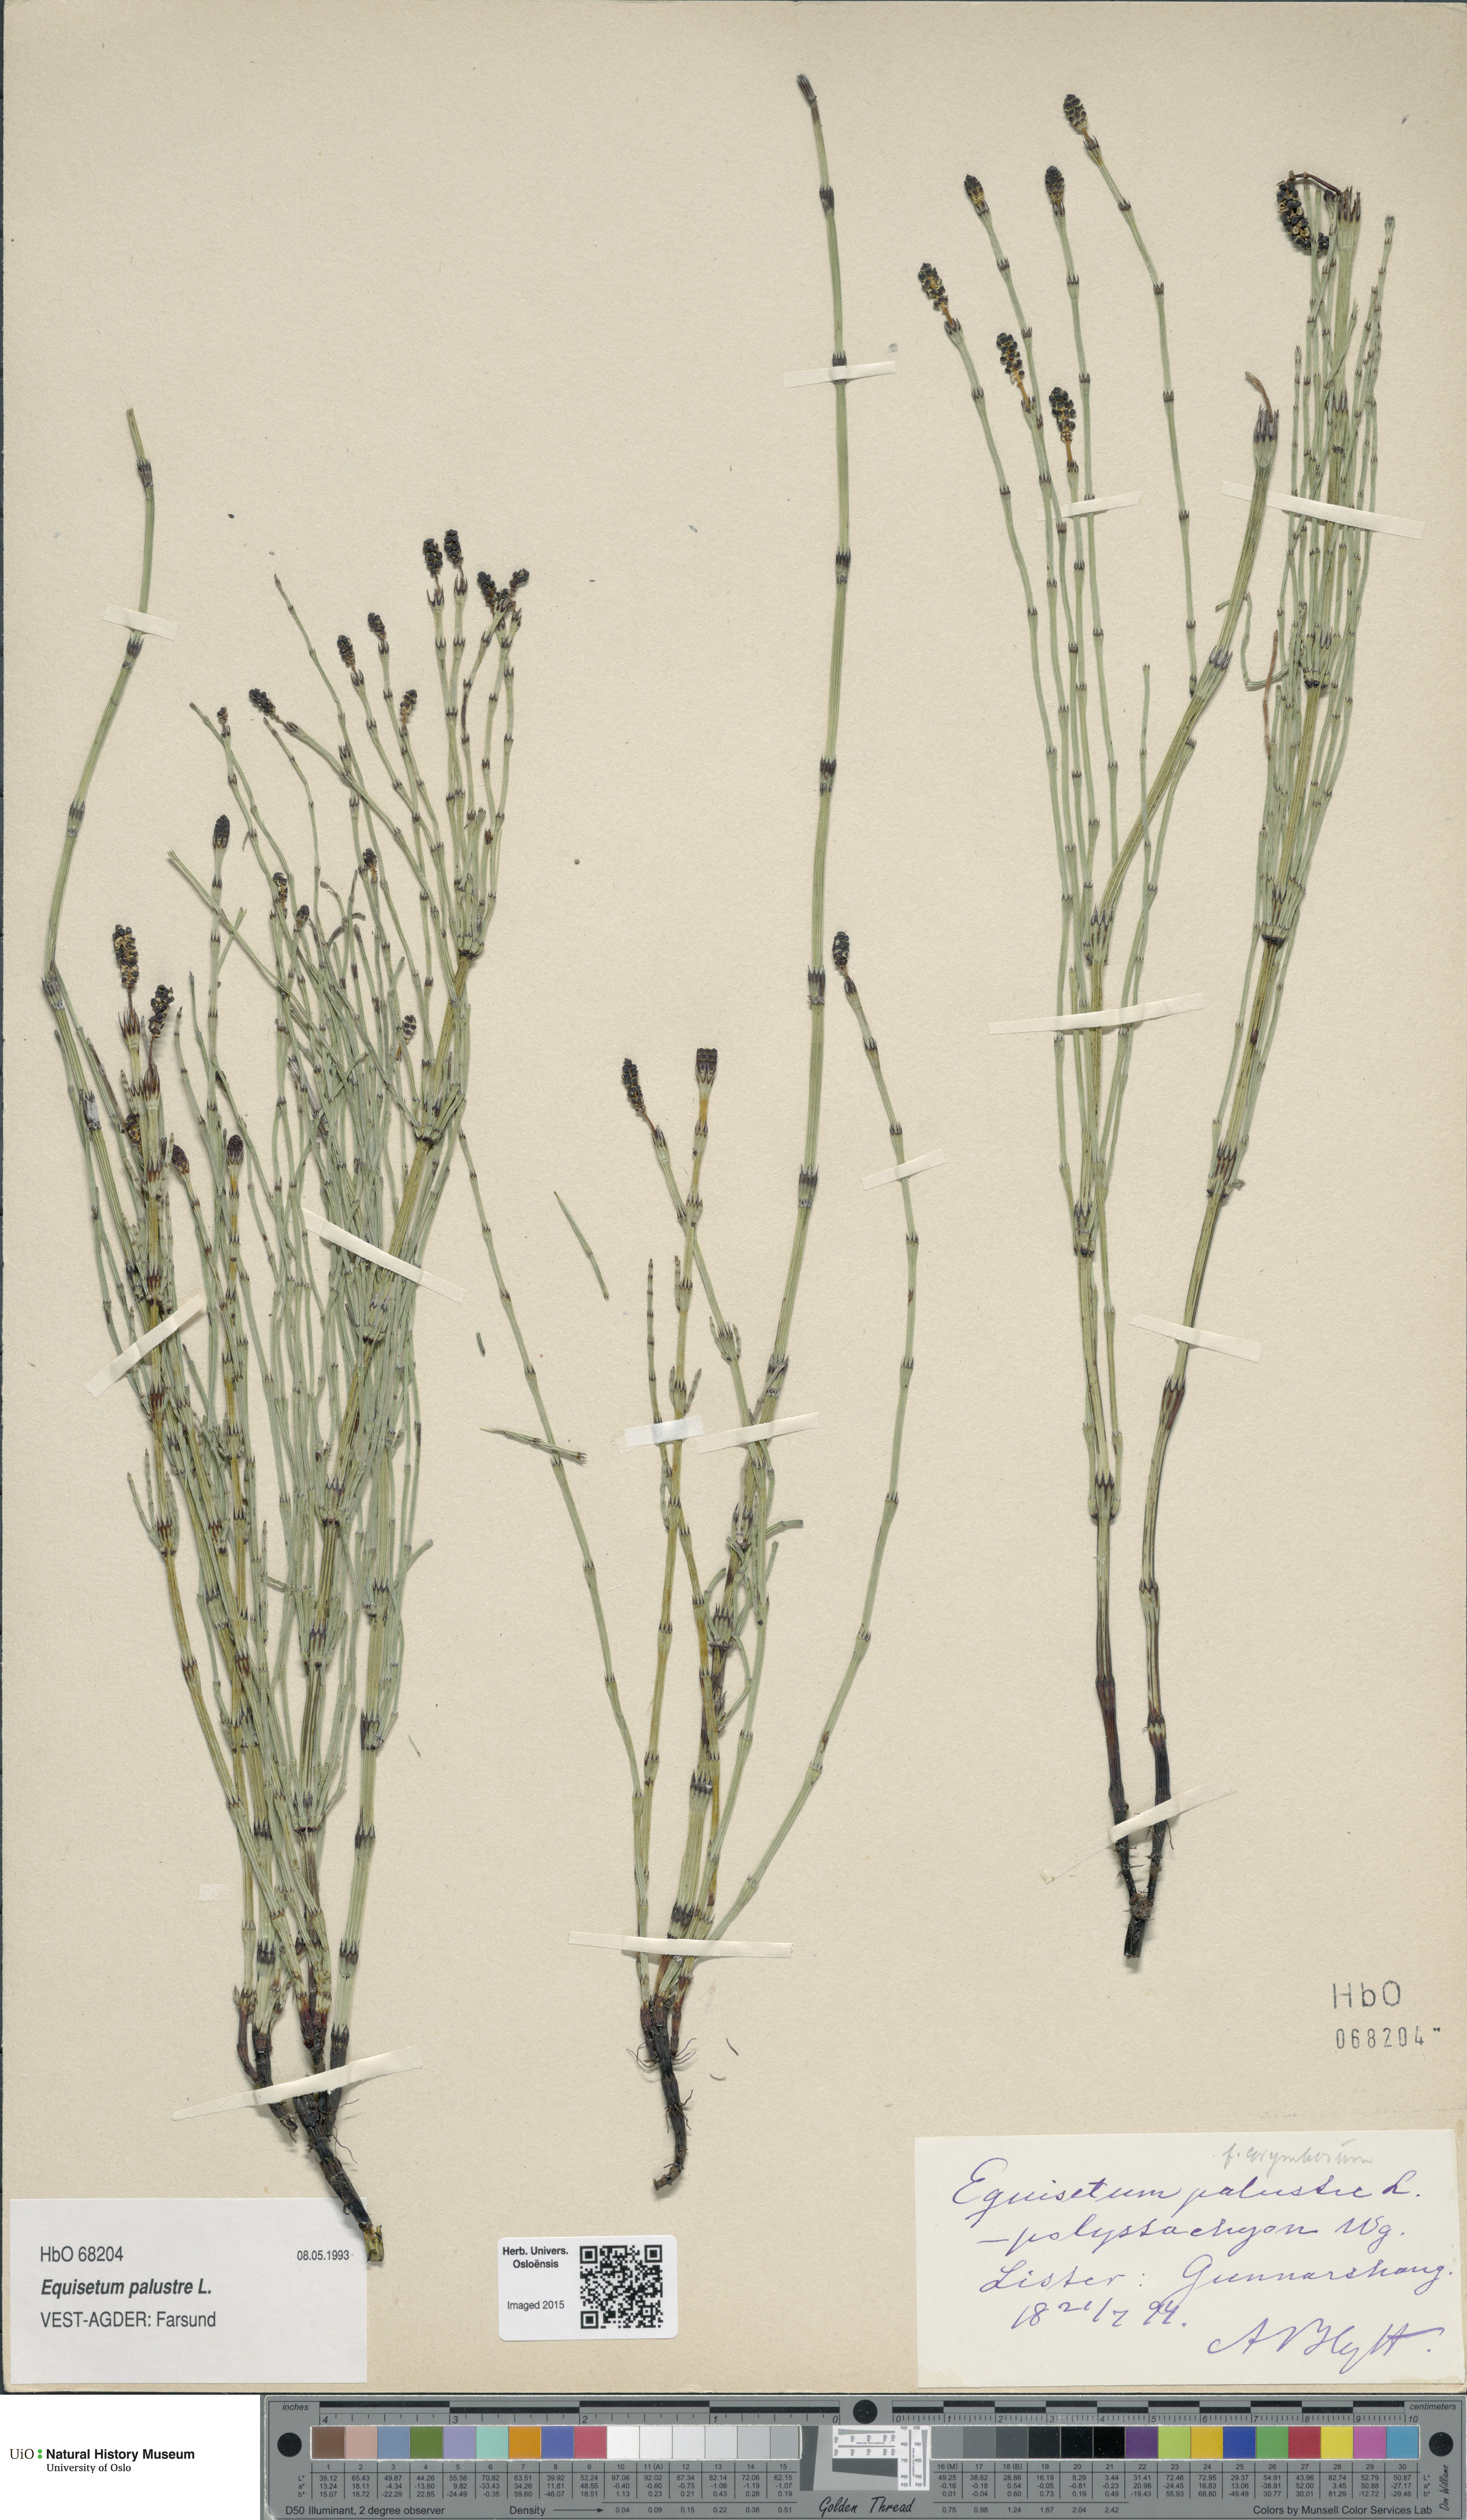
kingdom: Plantae
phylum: Tracheophyta
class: Polypodiopsida
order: Equisetales
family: Equisetaceae
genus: Equisetum
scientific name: Equisetum palustre
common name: Marsh horsetail
